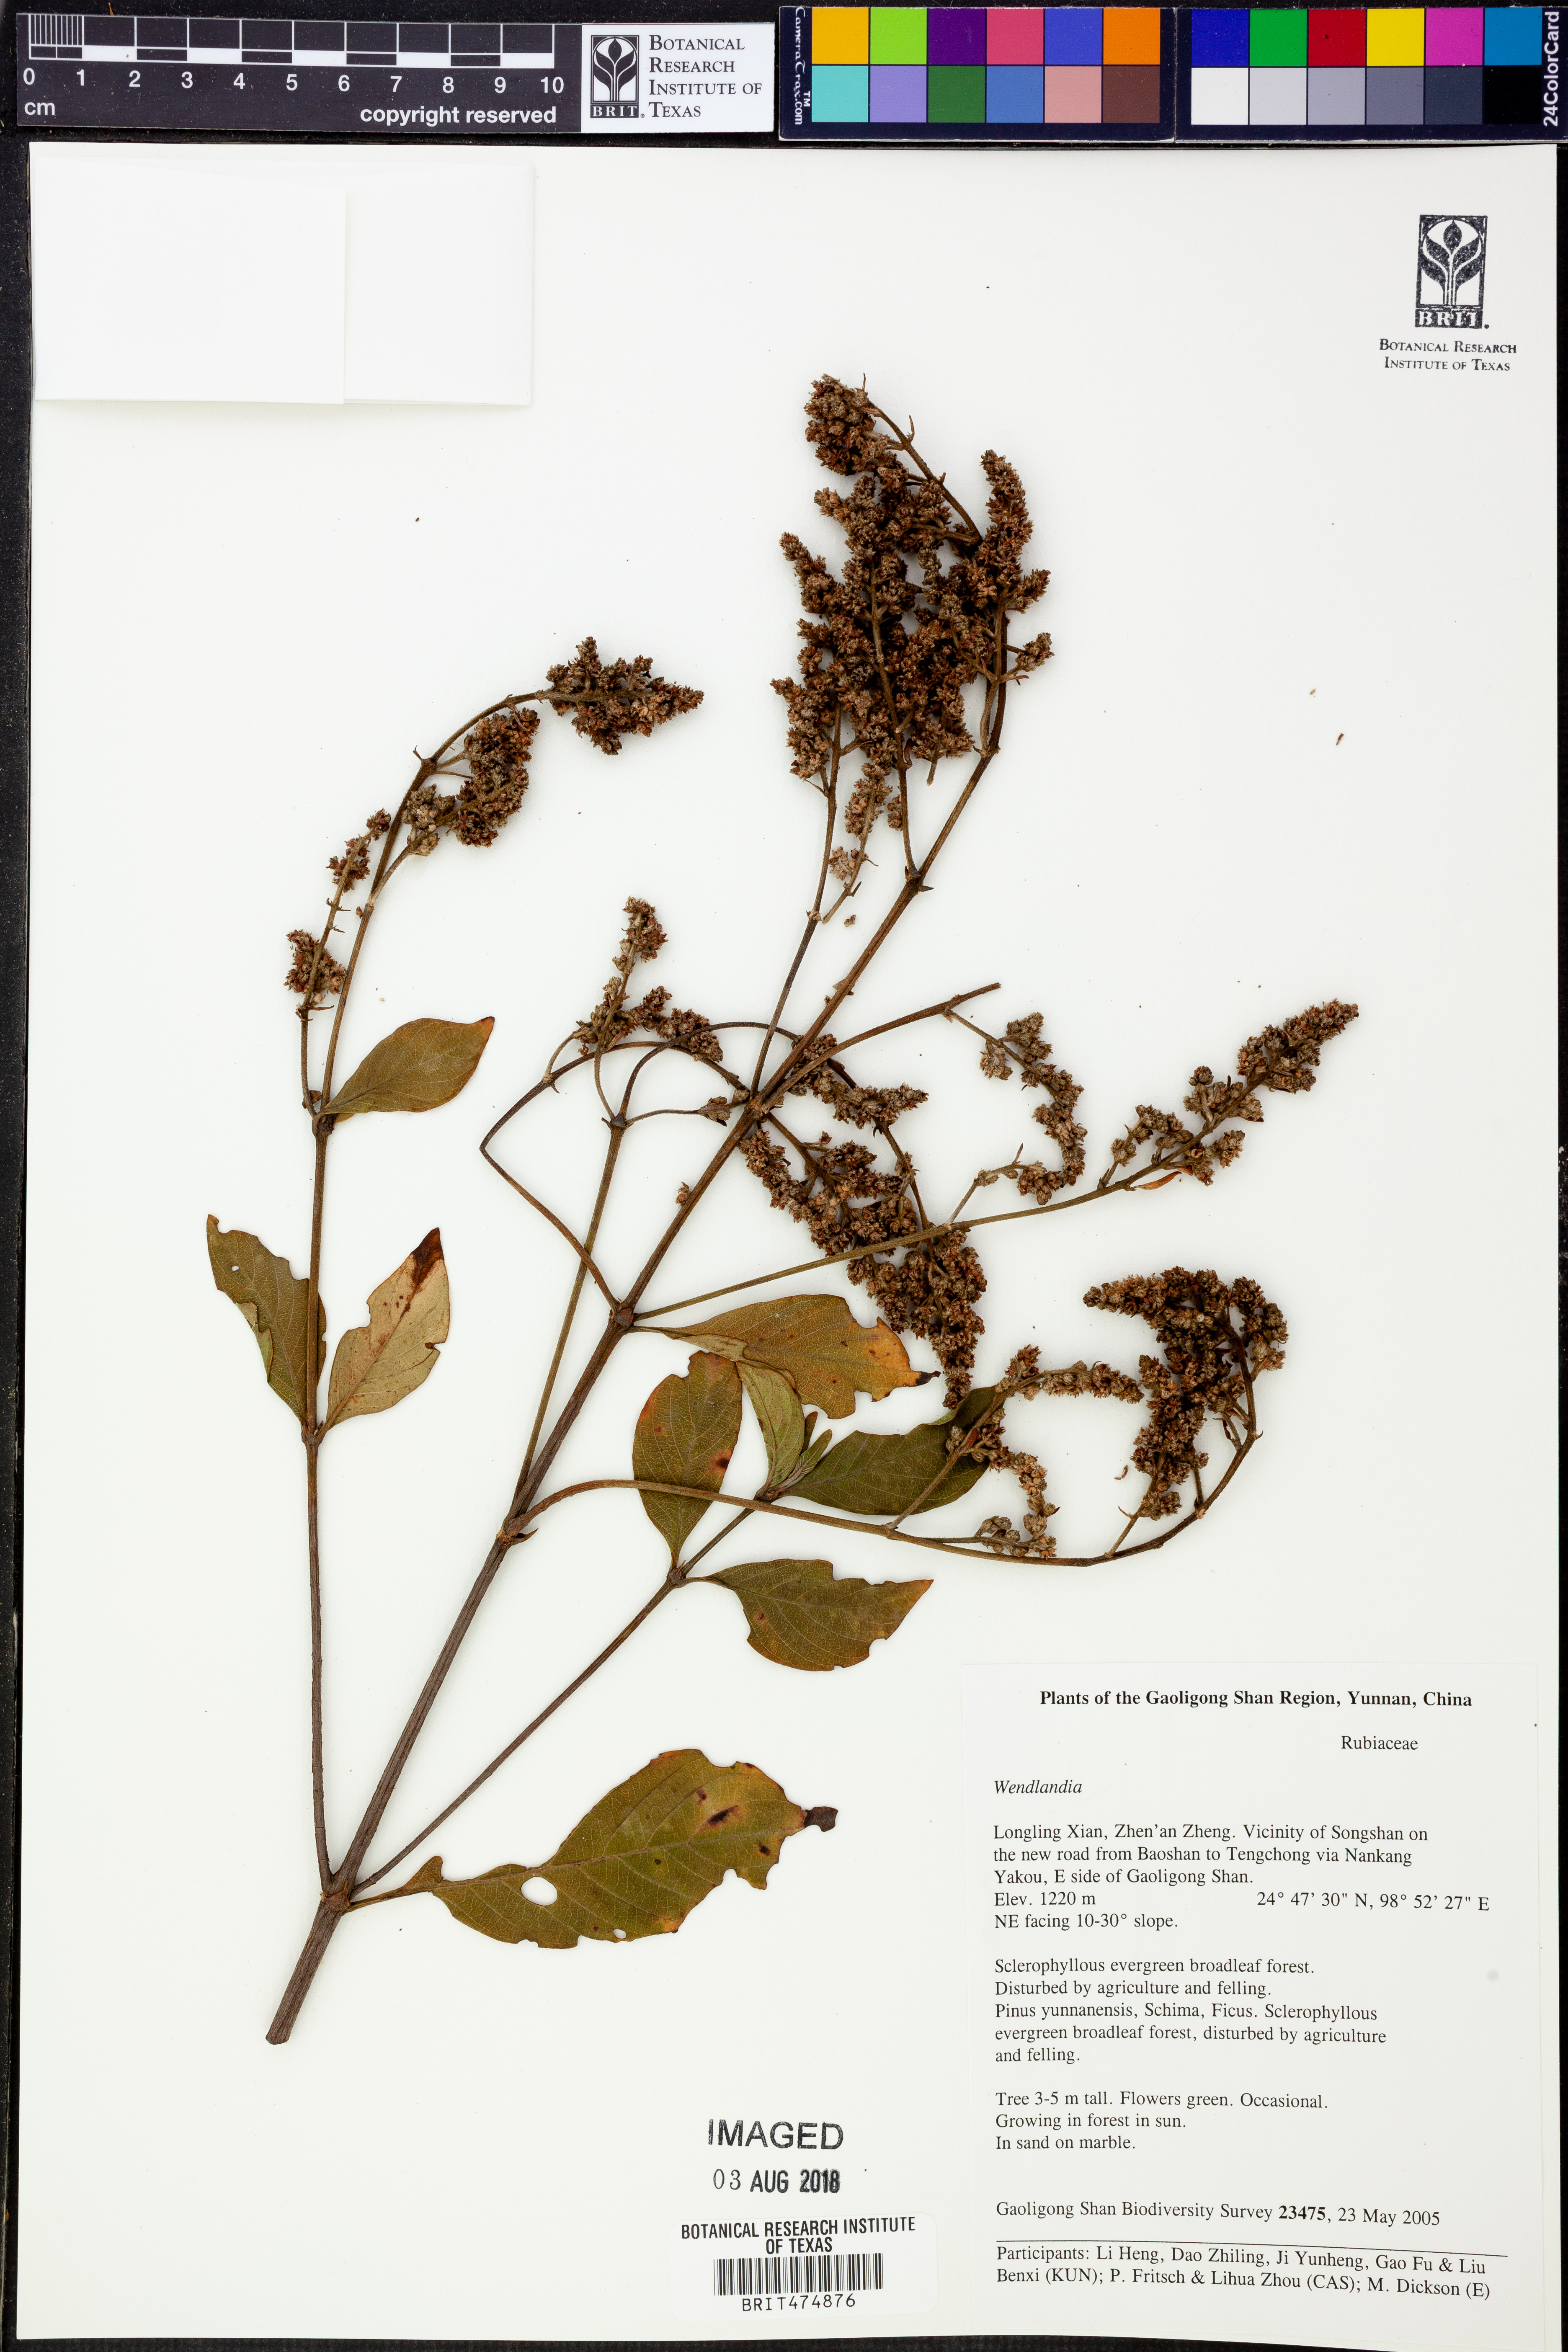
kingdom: Plantae
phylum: Tracheophyta
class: Magnoliopsida
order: Gentianales
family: Rubiaceae
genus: Wendlandia
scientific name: Wendlandia
